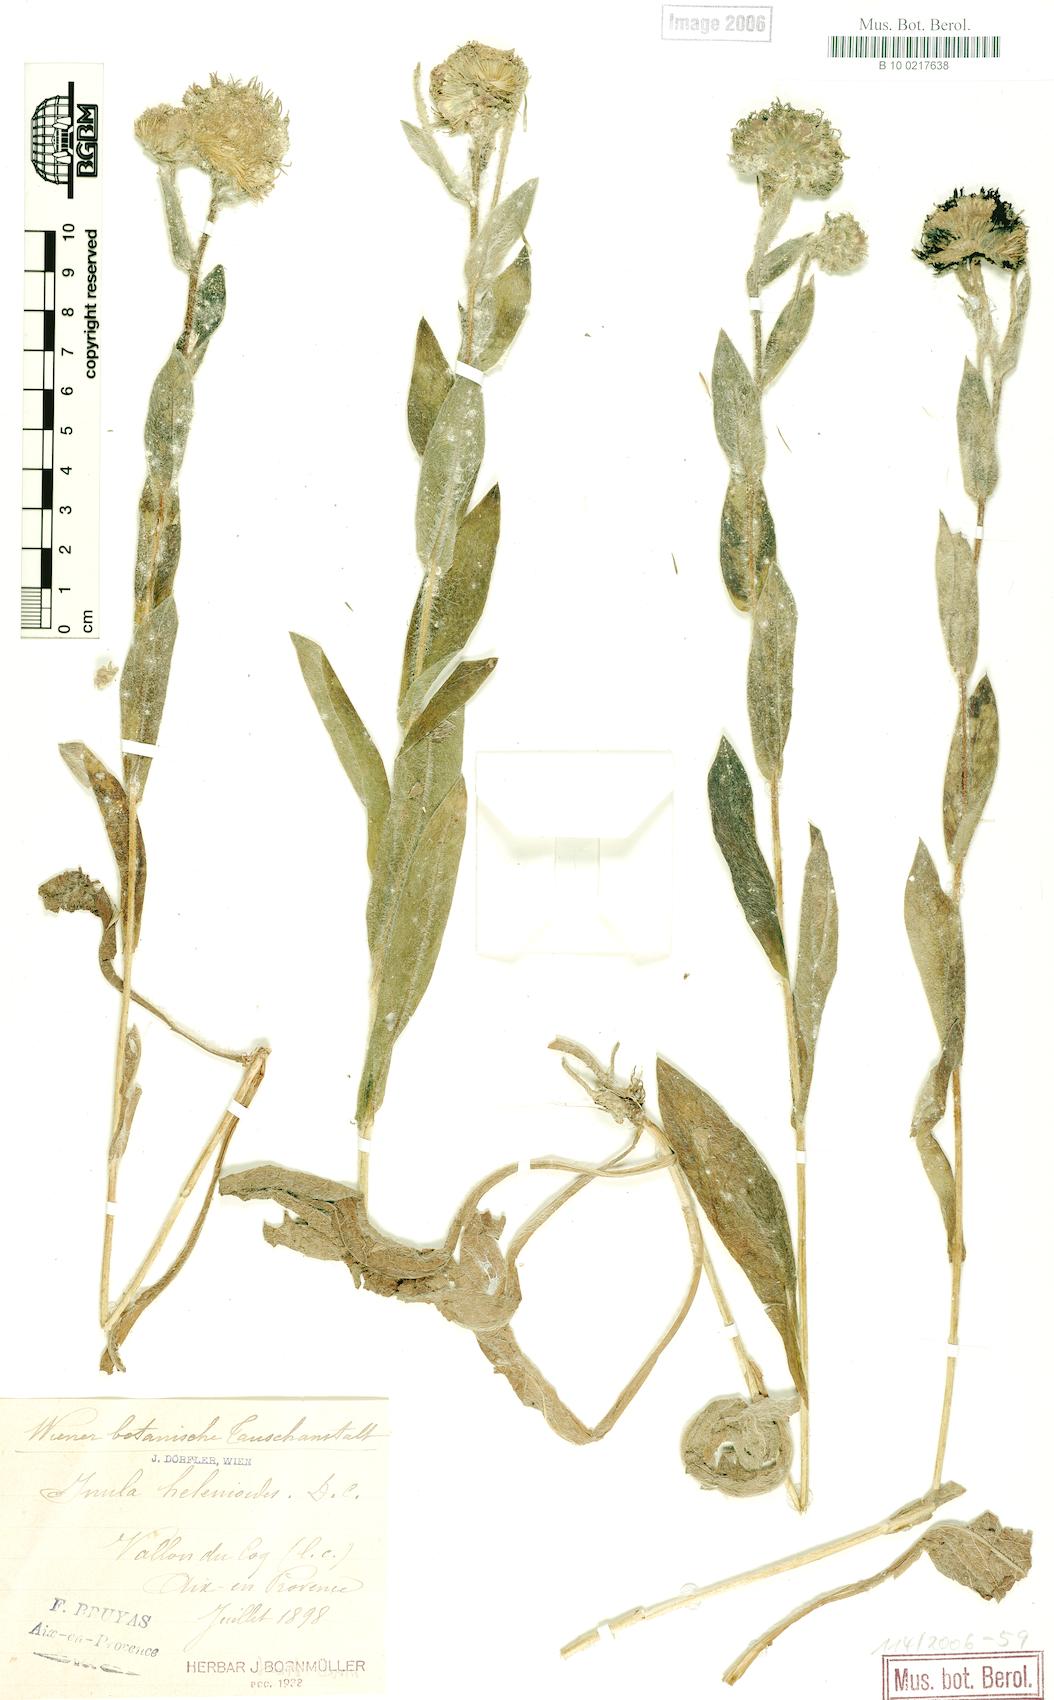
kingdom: Plantae
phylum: Tracheophyta
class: Magnoliopsida
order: Asterales
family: Asteraceae
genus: Pentanema
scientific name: Pentanema helenioides
